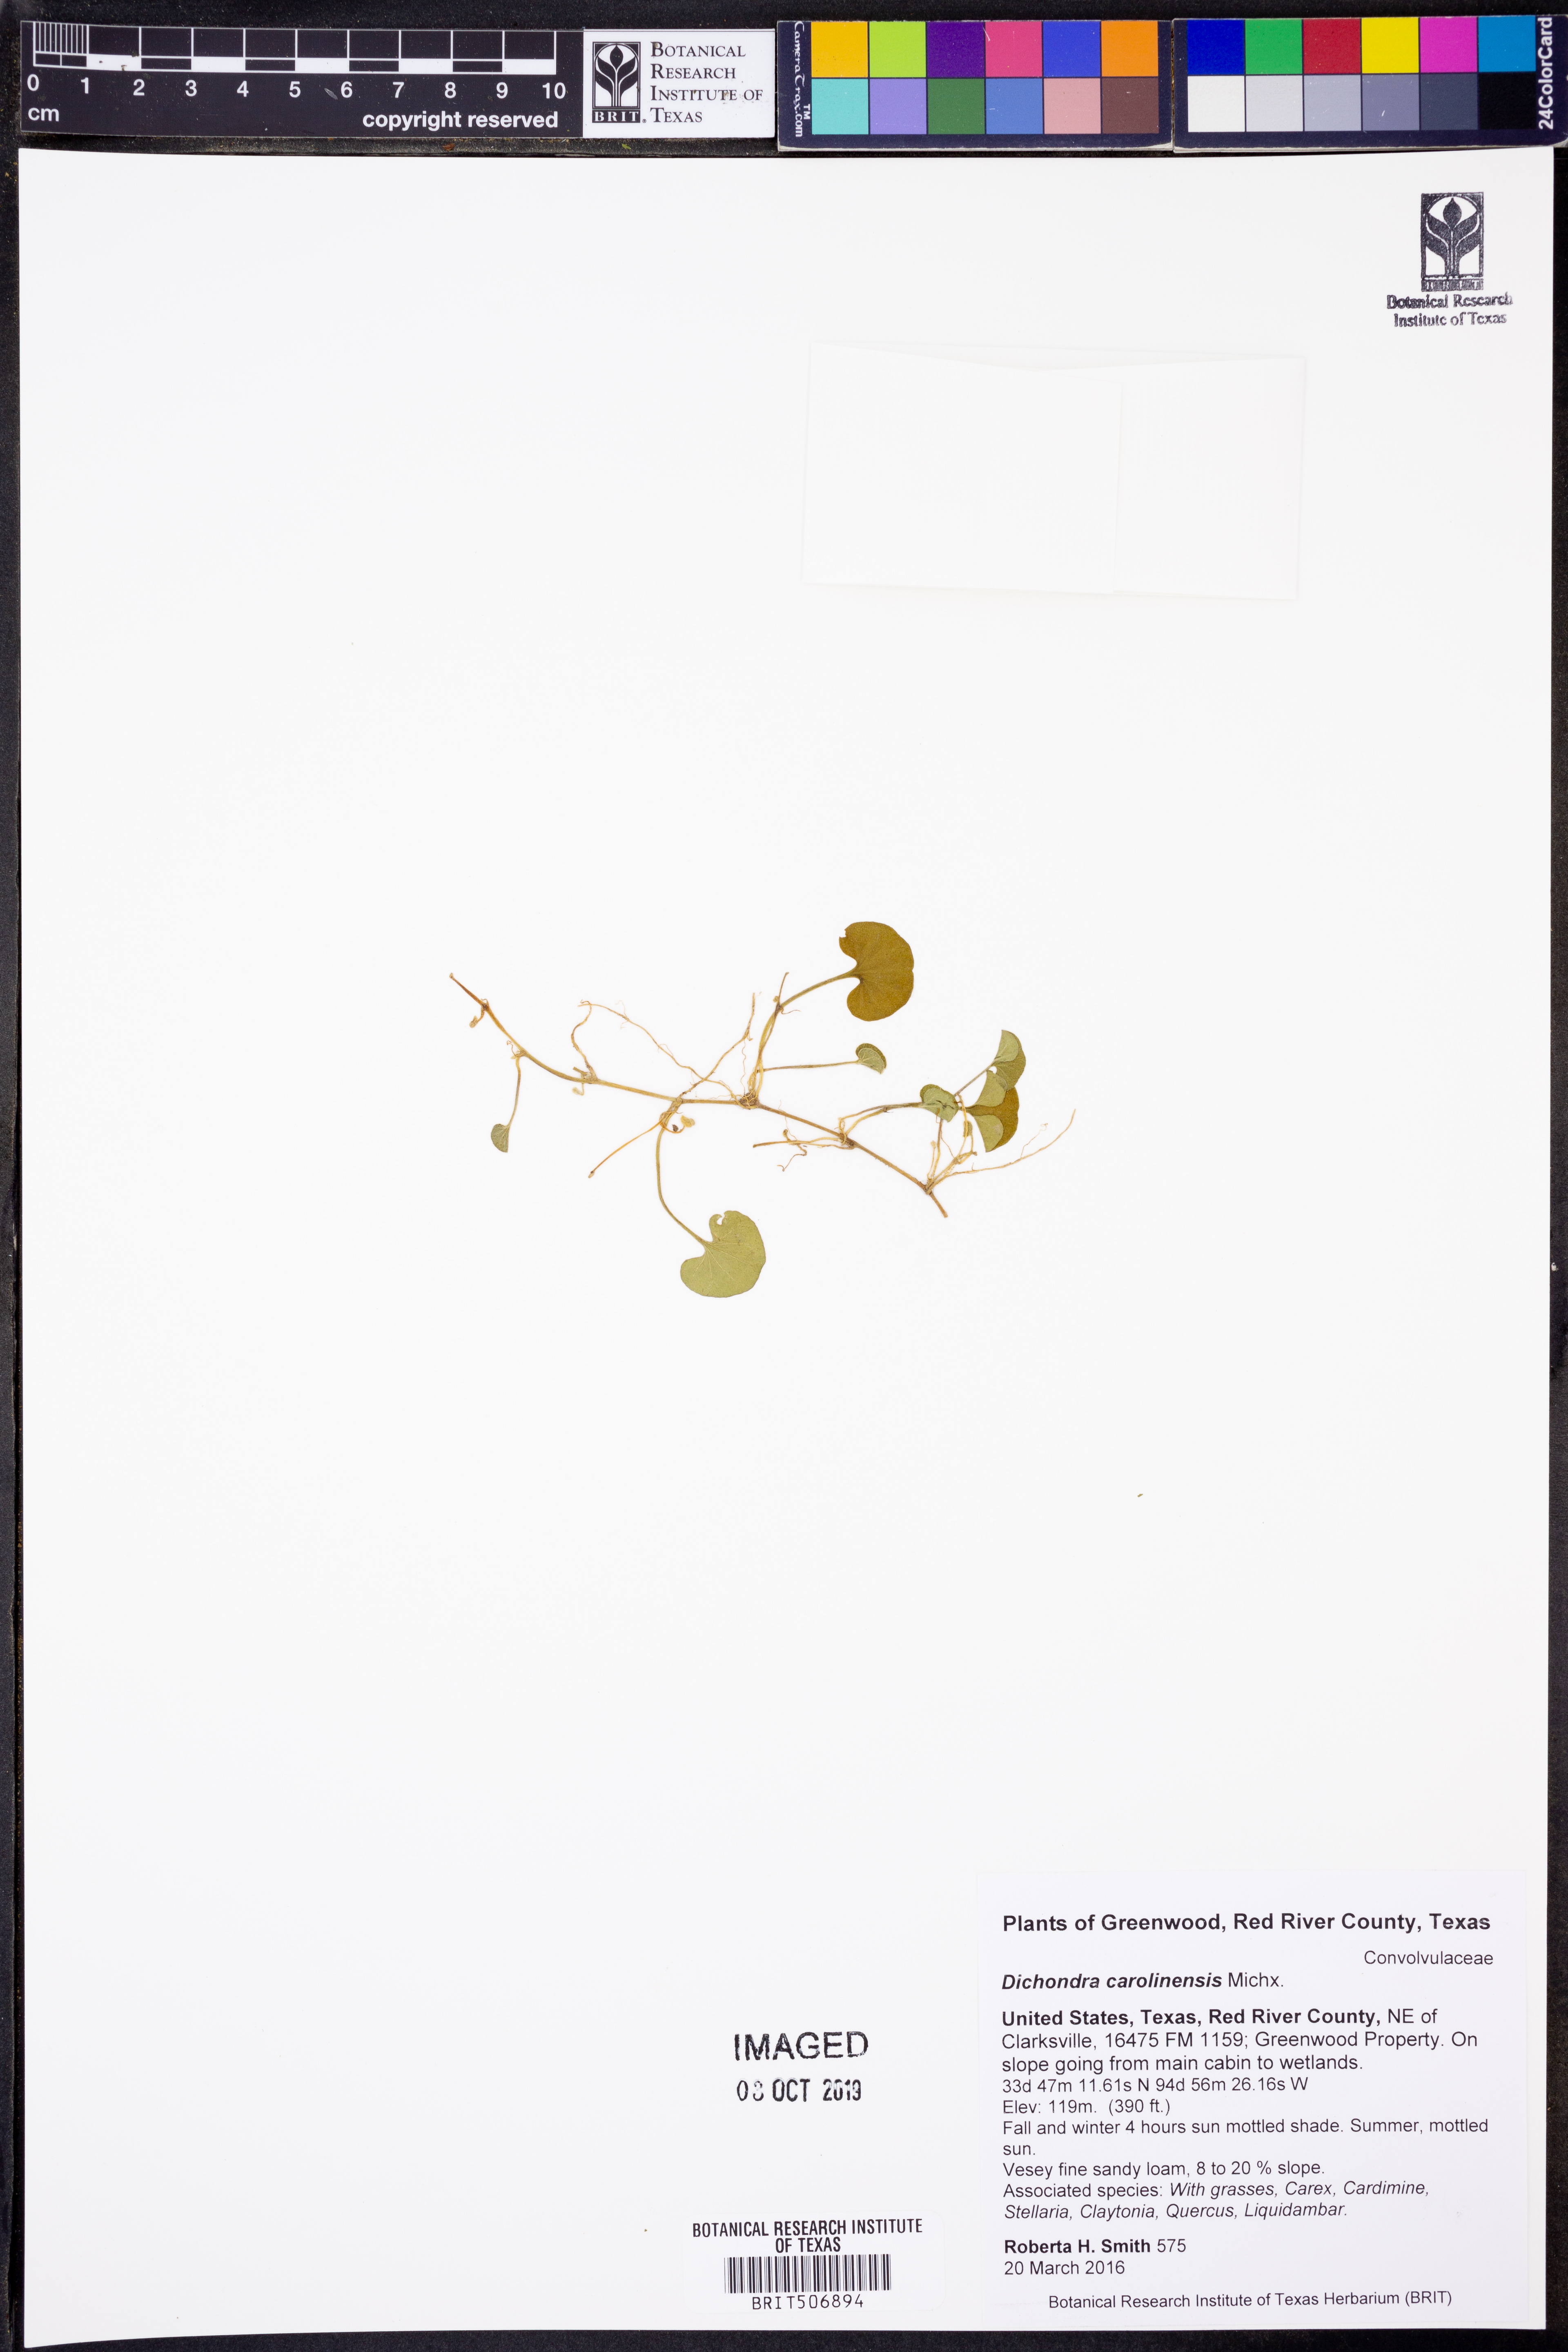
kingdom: Plantae
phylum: Tracheophyta
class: Magnoliopsida
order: Solanales
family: Convolvulaceae
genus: Dichondra
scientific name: Dichondra carolinensis
